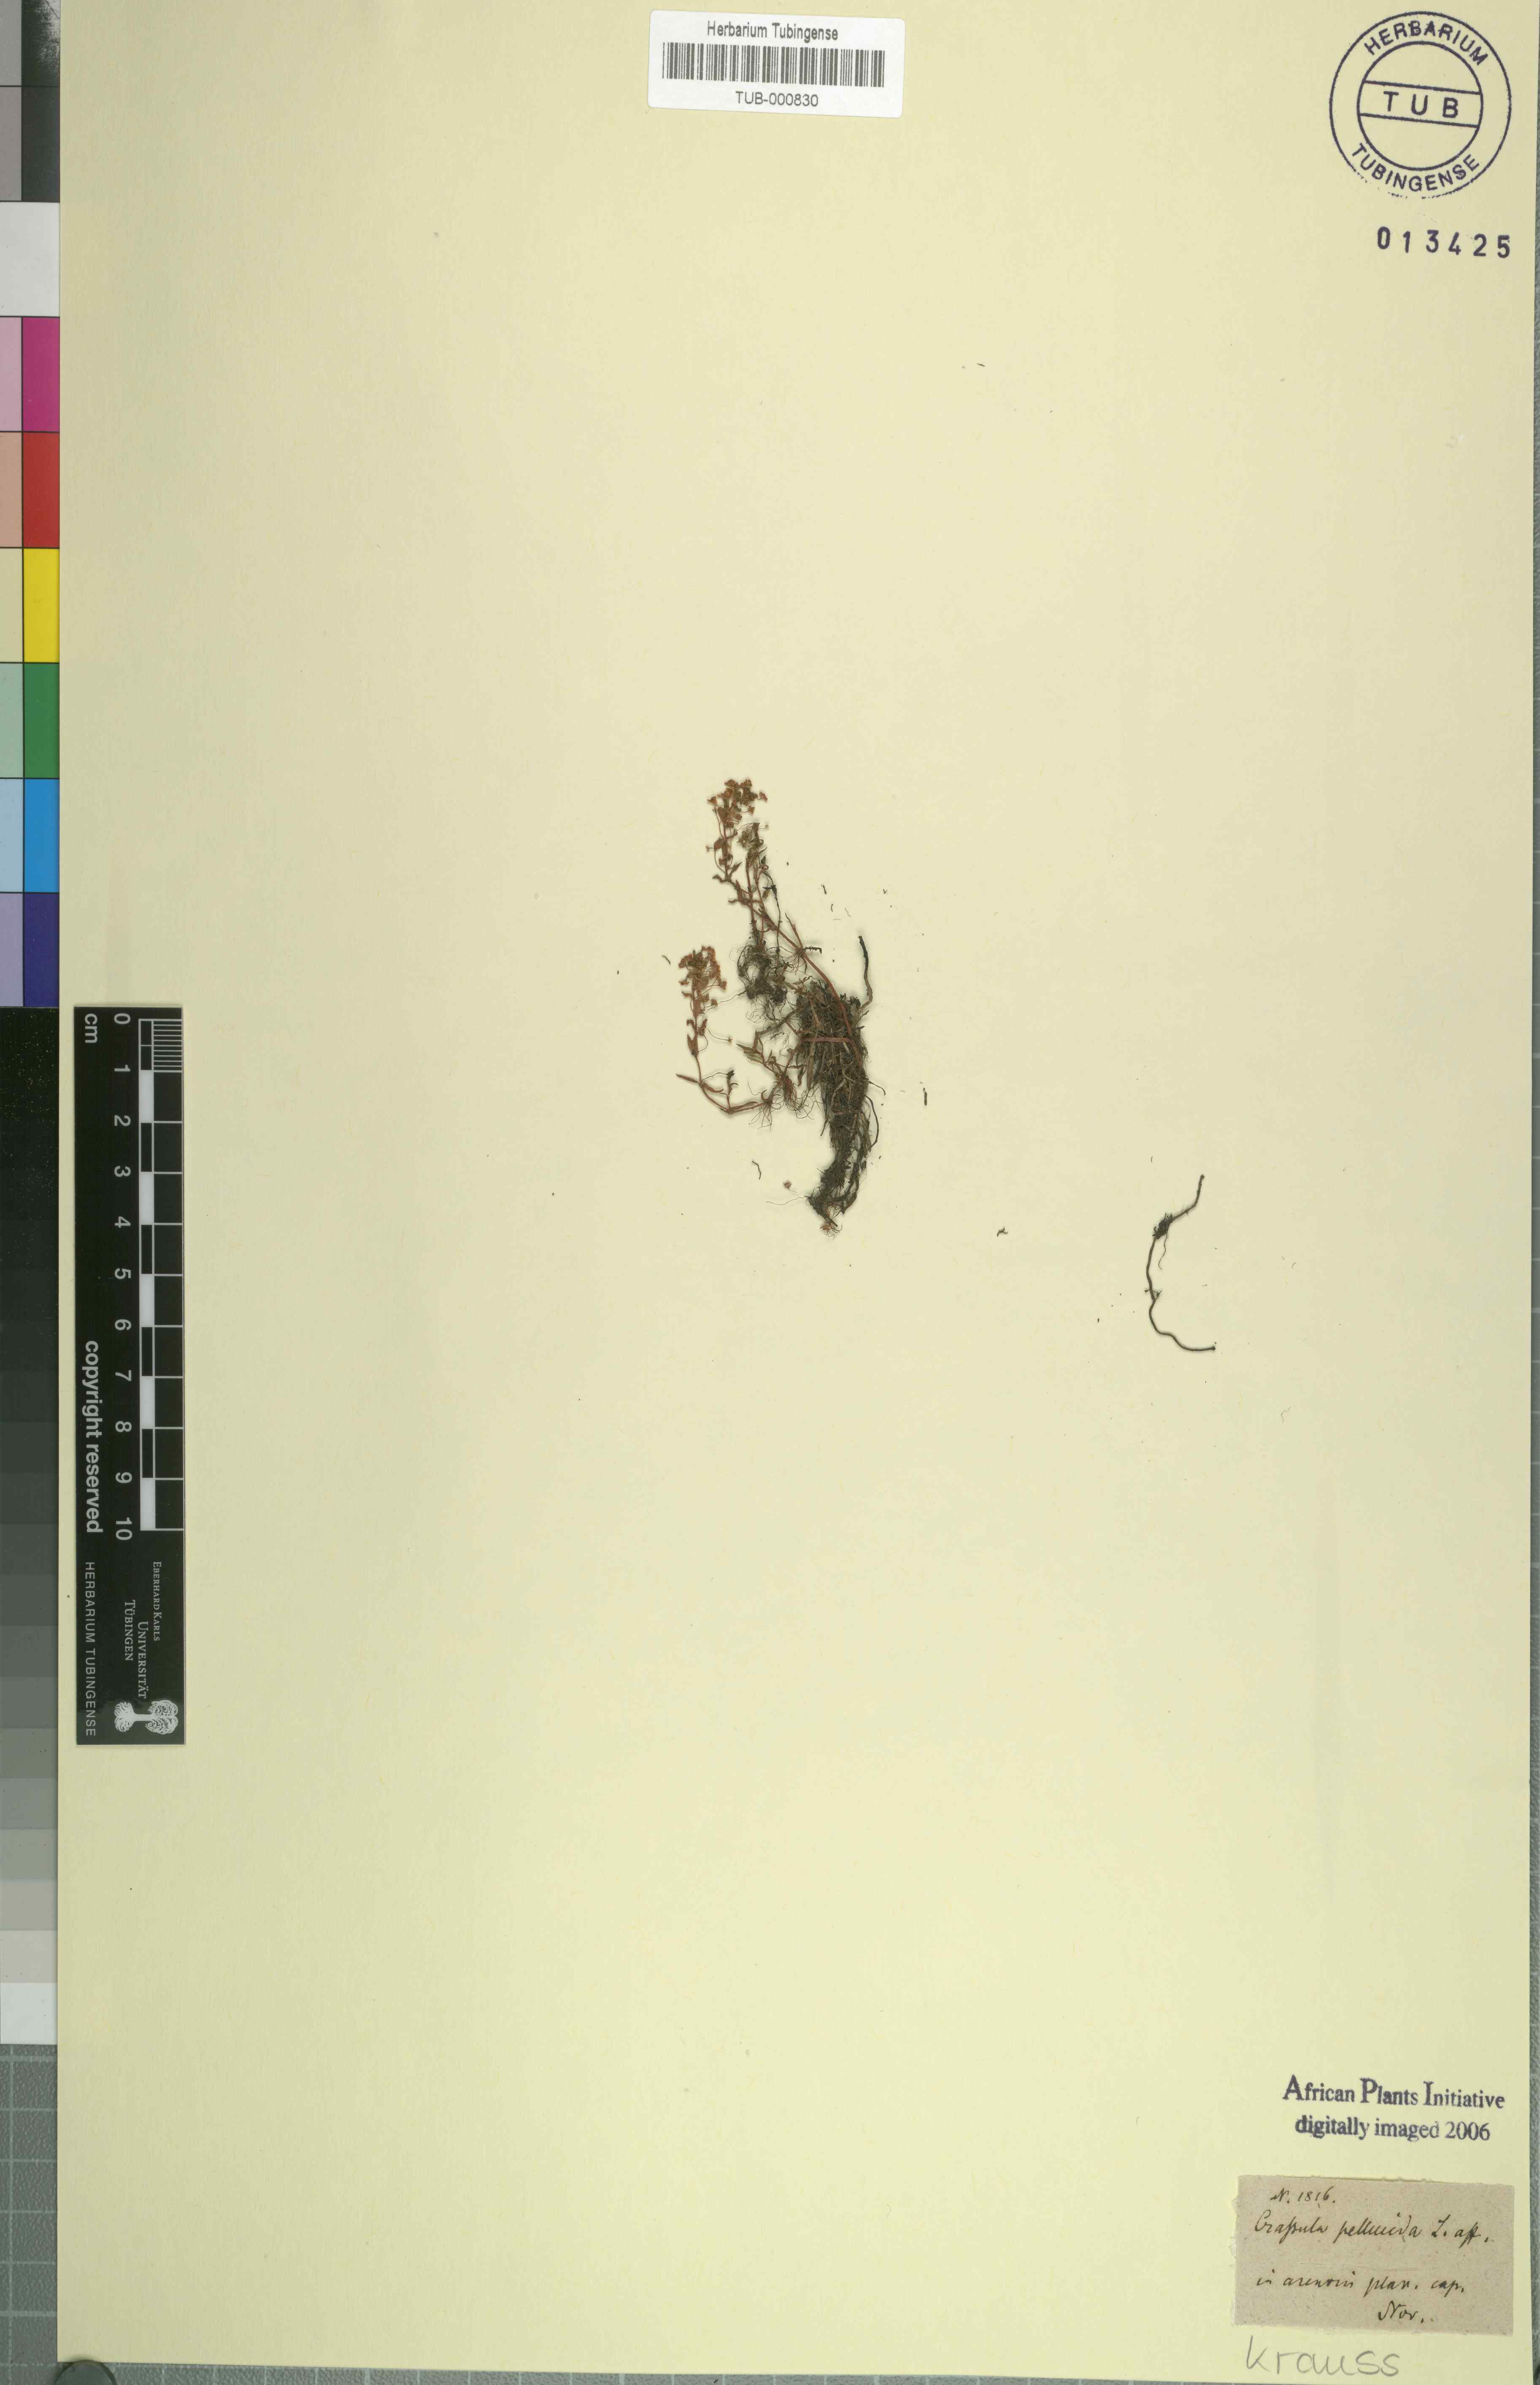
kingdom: Plantae
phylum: Tracheophyta
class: Magnoliopsida
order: Saxifragales
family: Crassulaceae
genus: Crassula
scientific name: Crassula pellucida
